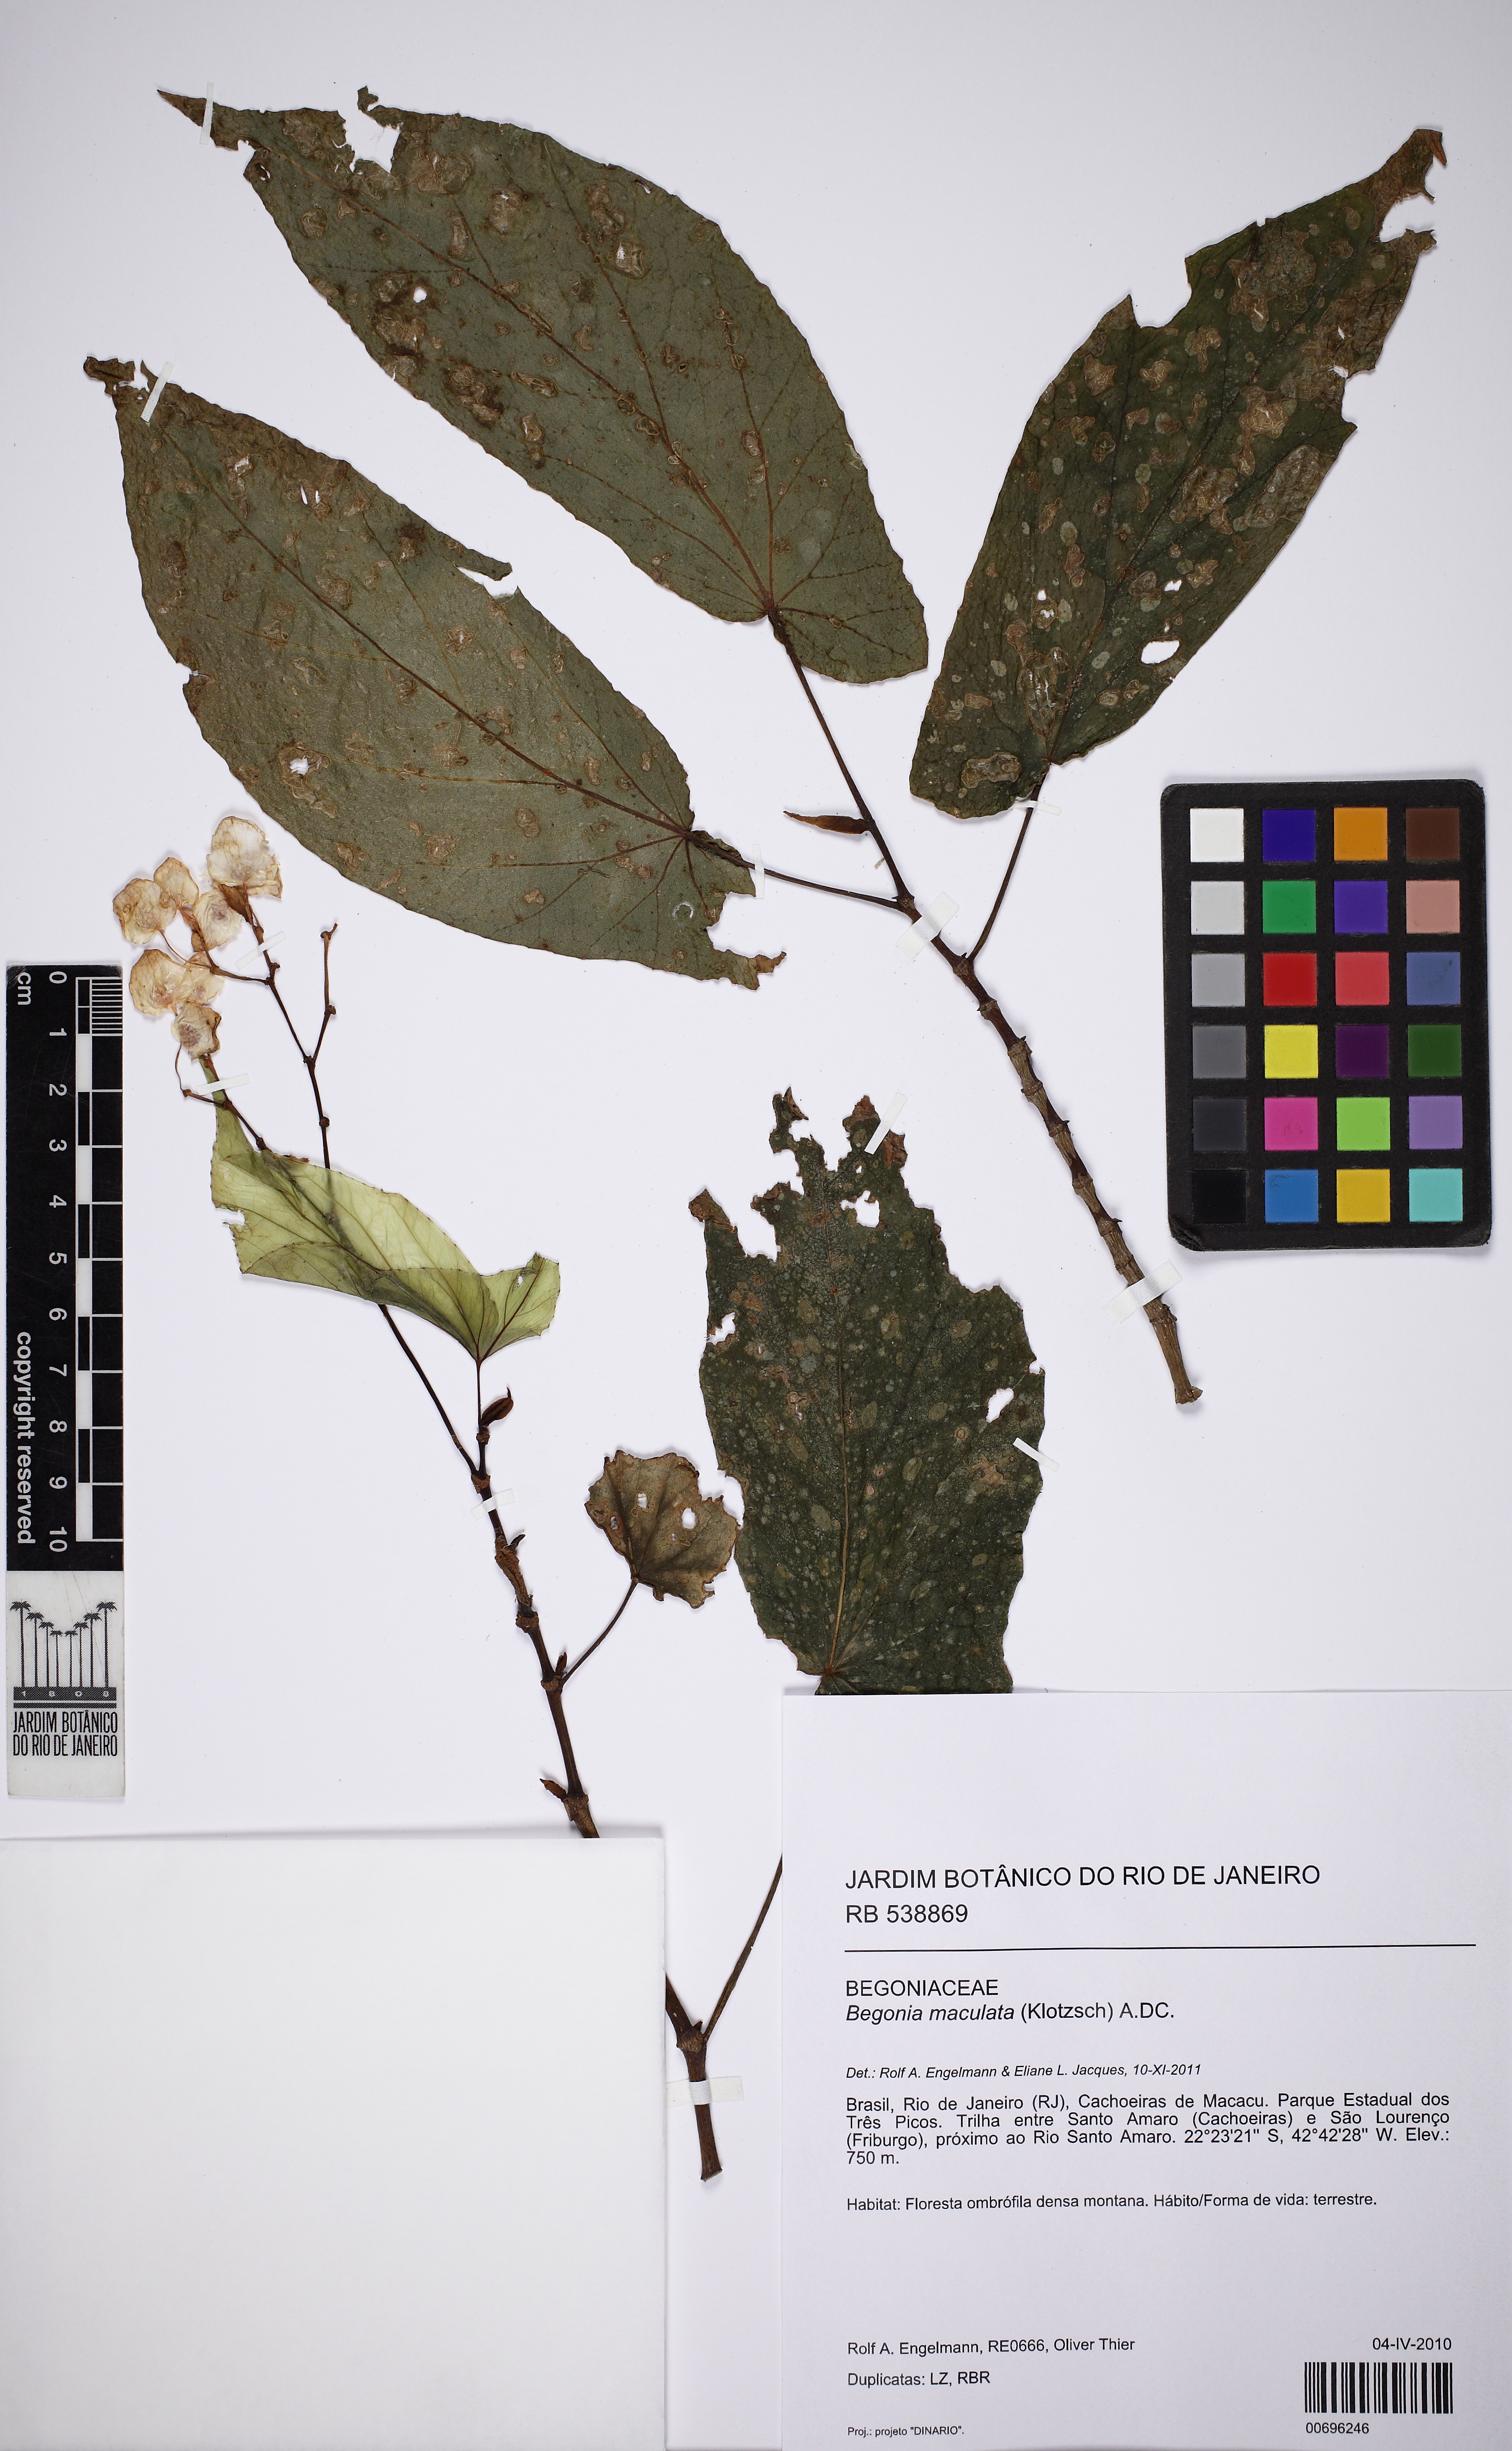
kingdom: Plantae
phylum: Tracheophyta
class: Magnoliopsida
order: Cucurbitales
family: Begoniaceae
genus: Begonia
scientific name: Begonia maculata
